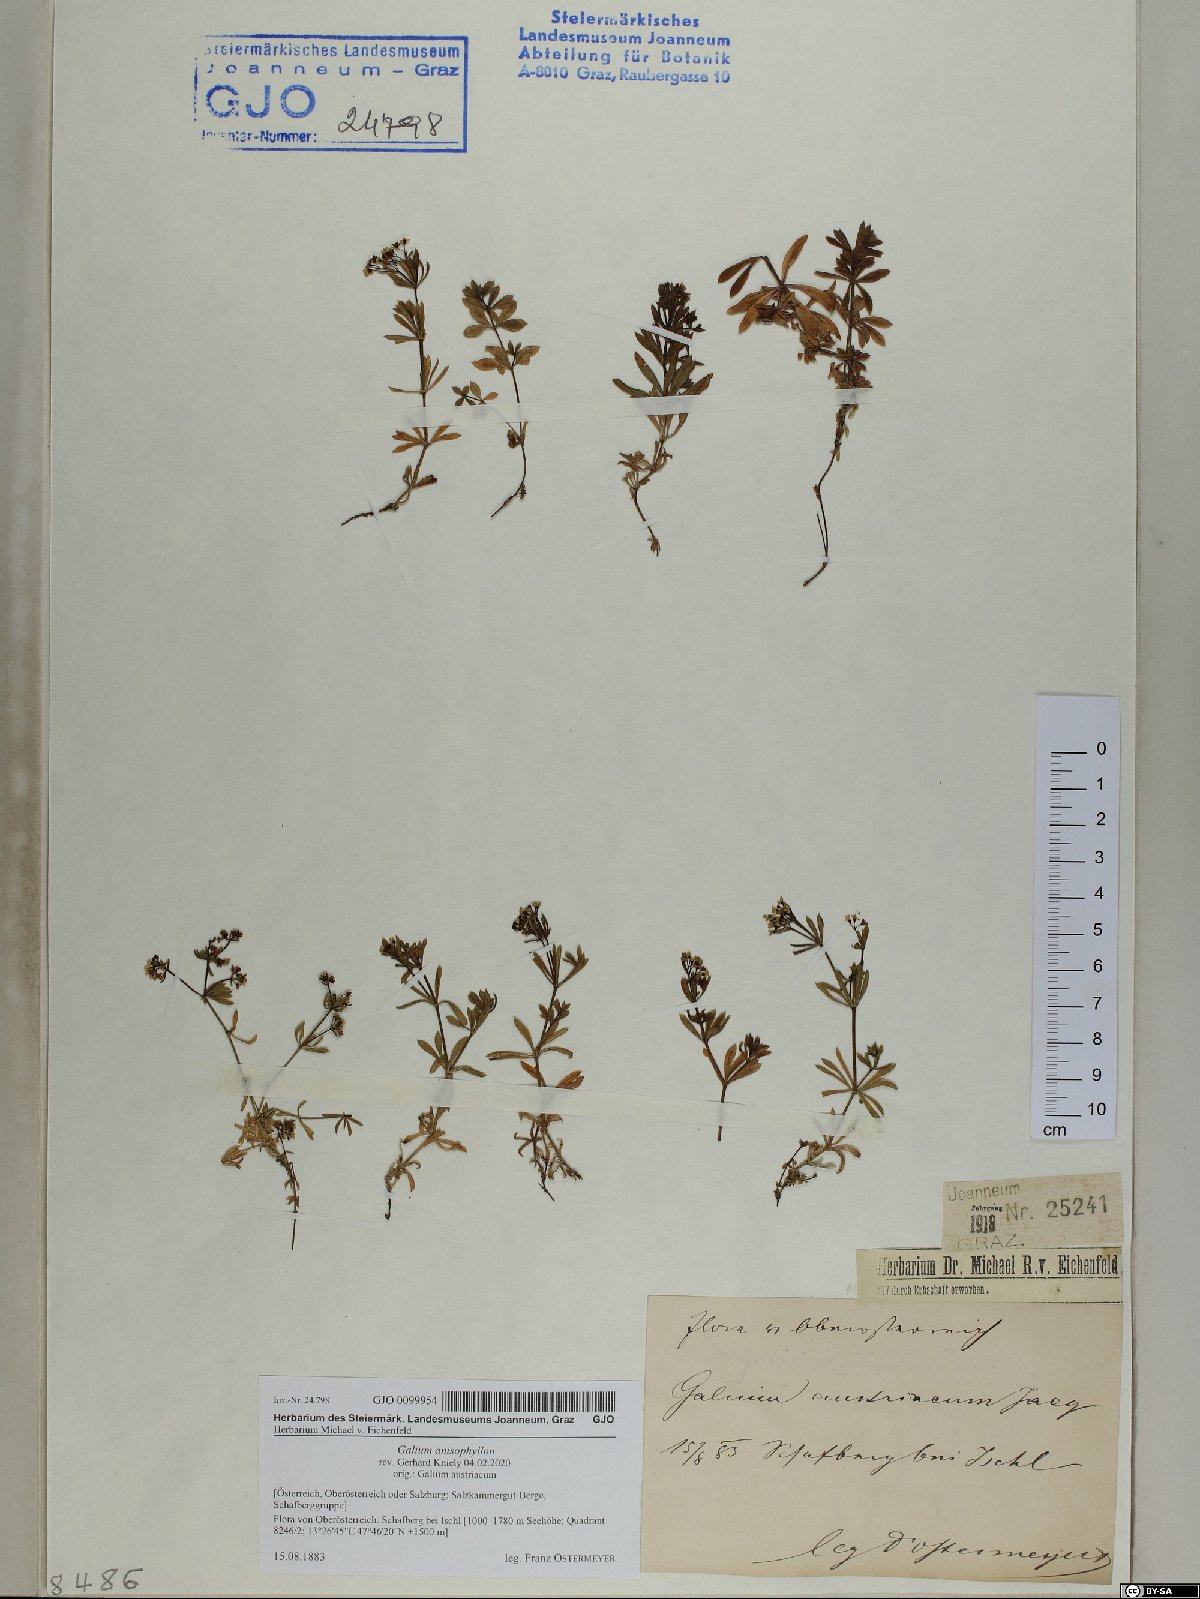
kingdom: Plantae
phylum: Tracheophyta
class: Magnoliopsida
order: Gentianales
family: Rubiaceae
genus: Galium
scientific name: Galium anisophyllon
